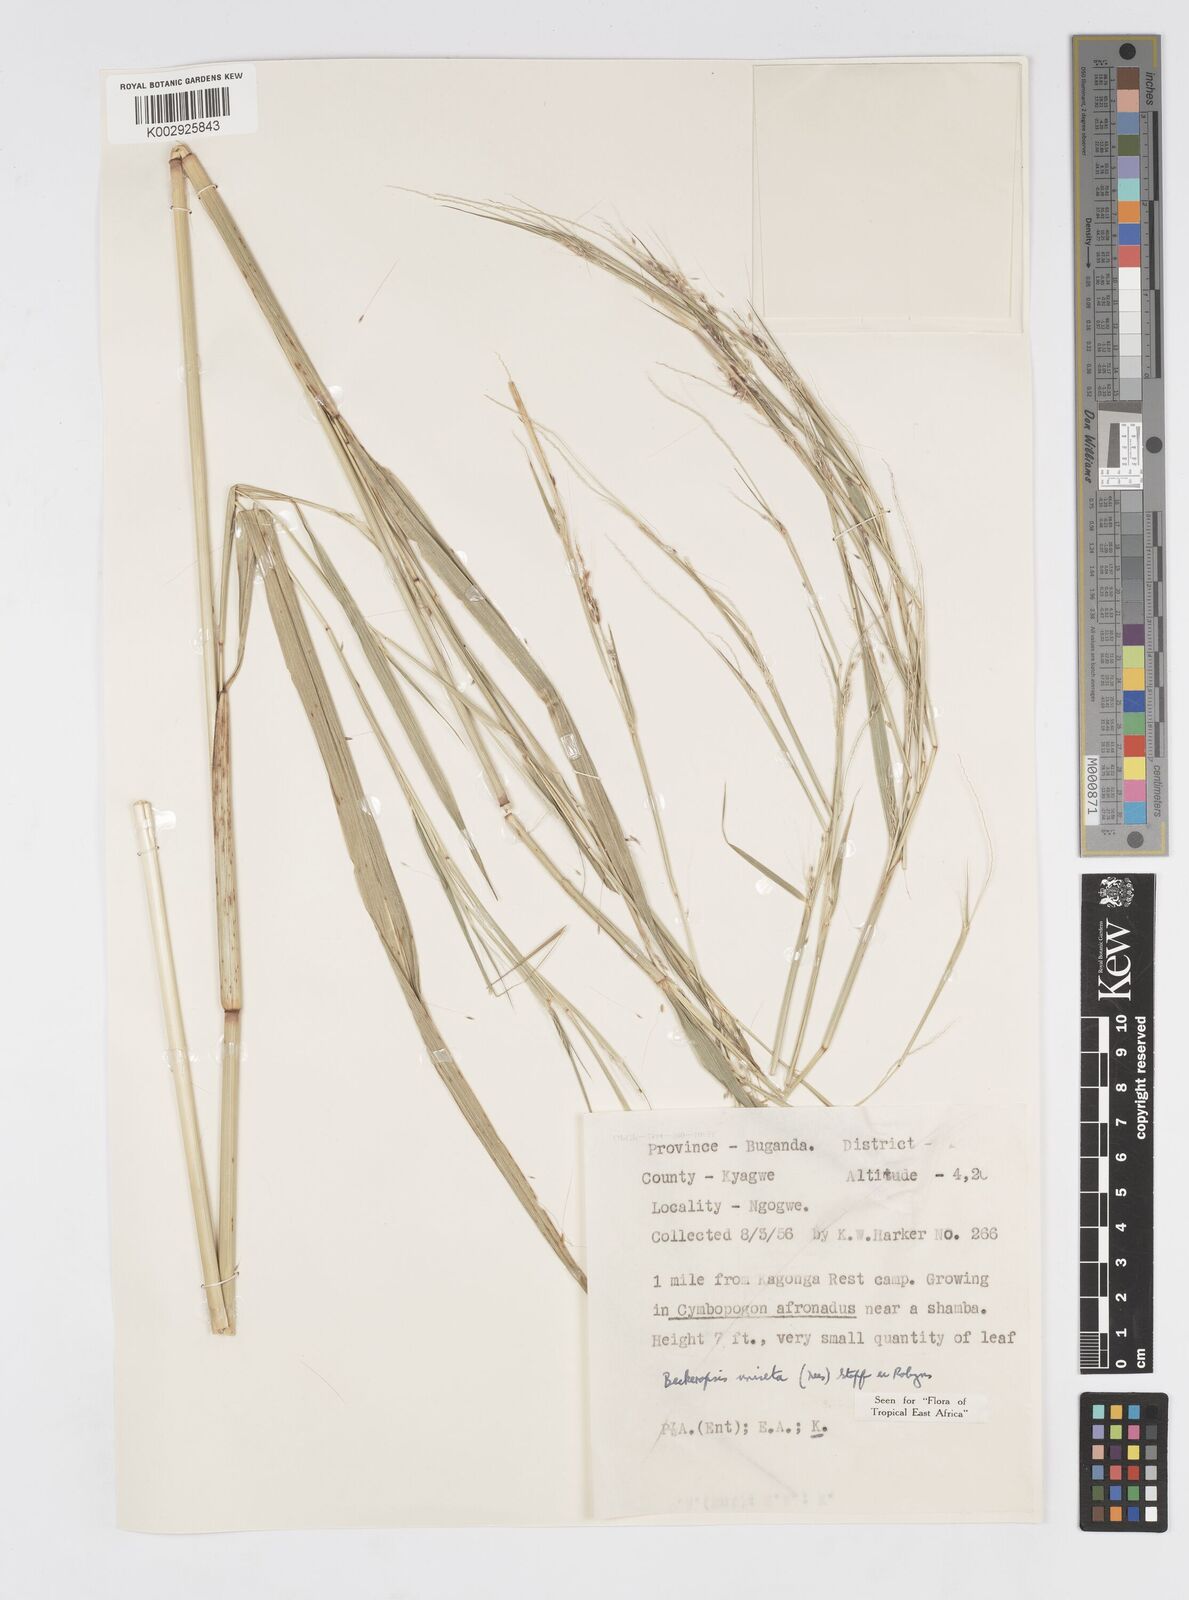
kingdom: Plantae
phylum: Tracheophyta
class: Liliopsida
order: Poales
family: Poaceae
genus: Cenchrus
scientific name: Cenchrus unisetus
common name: Natal grass
